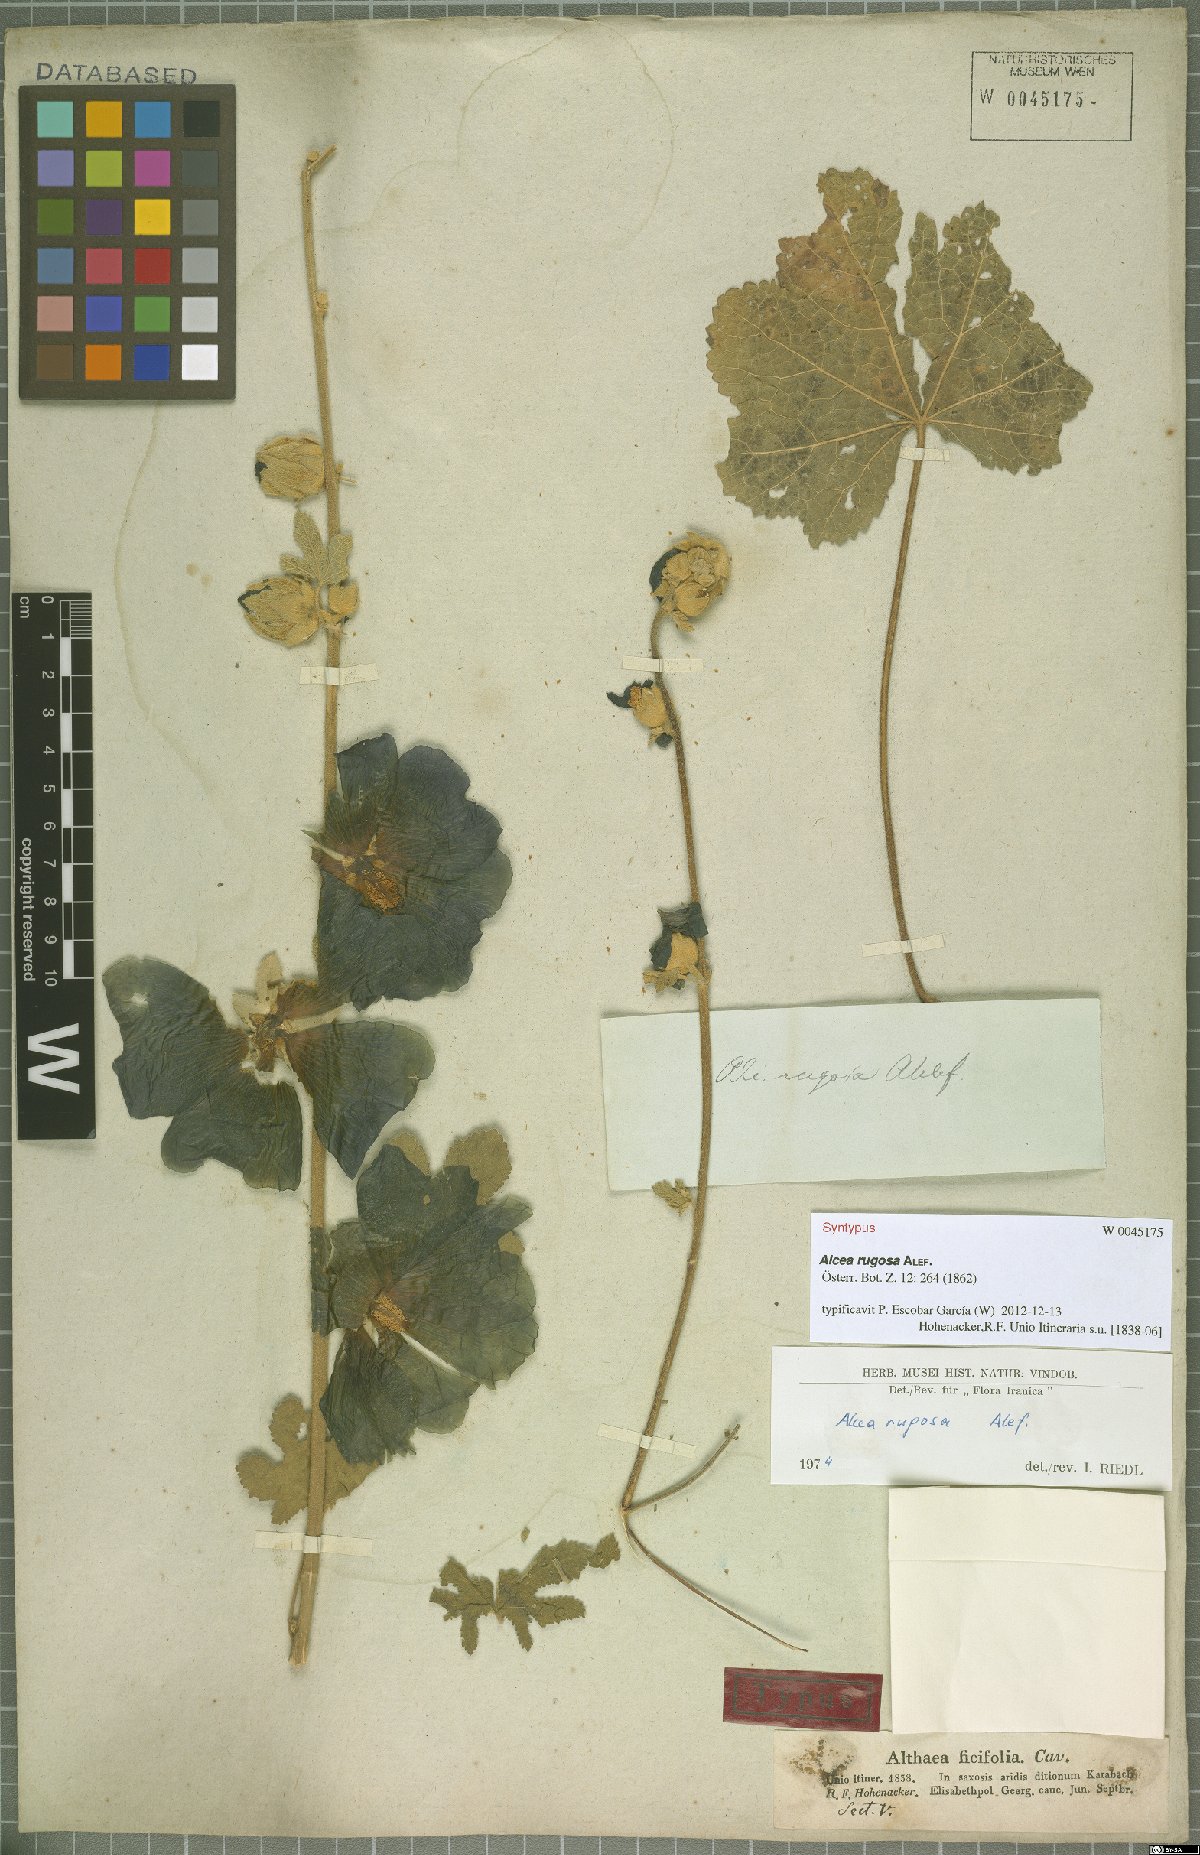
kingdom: Plantae
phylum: Tracheophyta
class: Magnoliopsida
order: Malvales
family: Malvaceae
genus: Alcea
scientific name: Alcea rugosa
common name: Russian hollyhock
